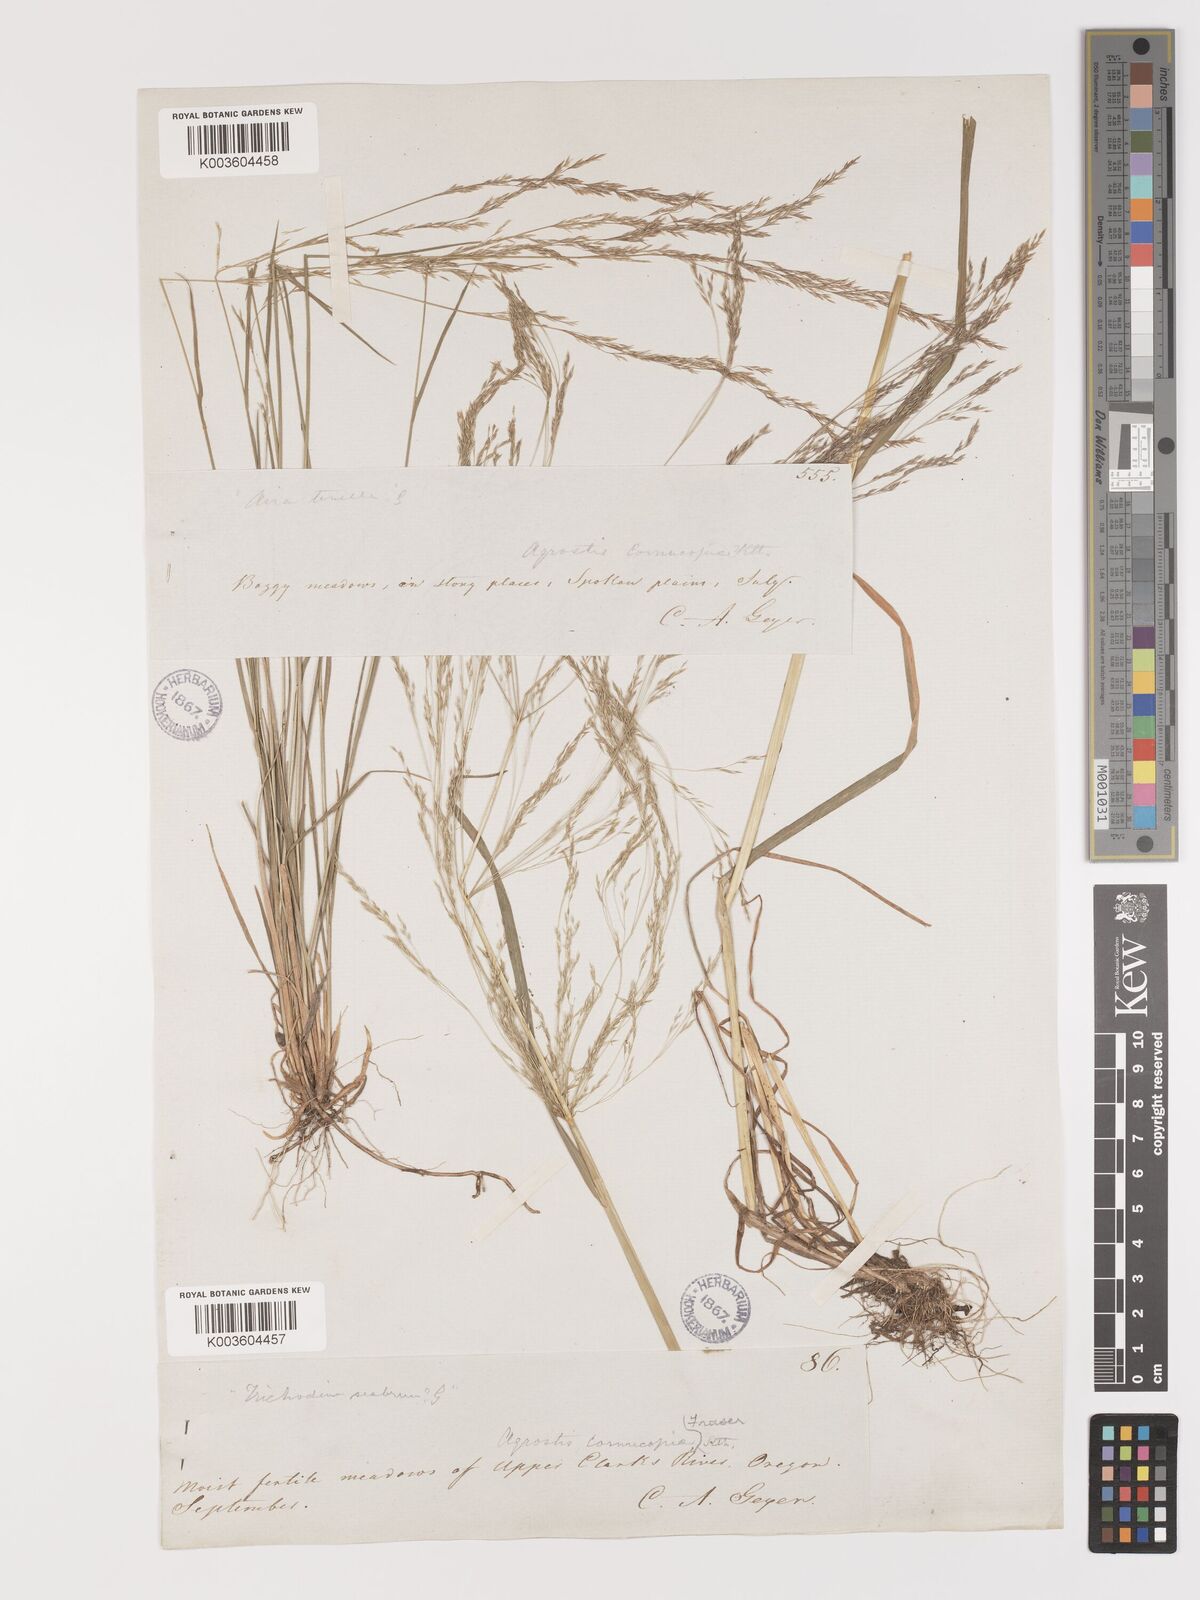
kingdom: Plantae
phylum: Tracheophyta
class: Liliopsida
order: Poales
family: Poaceae
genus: Agrostis
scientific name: Agrostis hyemalis
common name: Small bent
